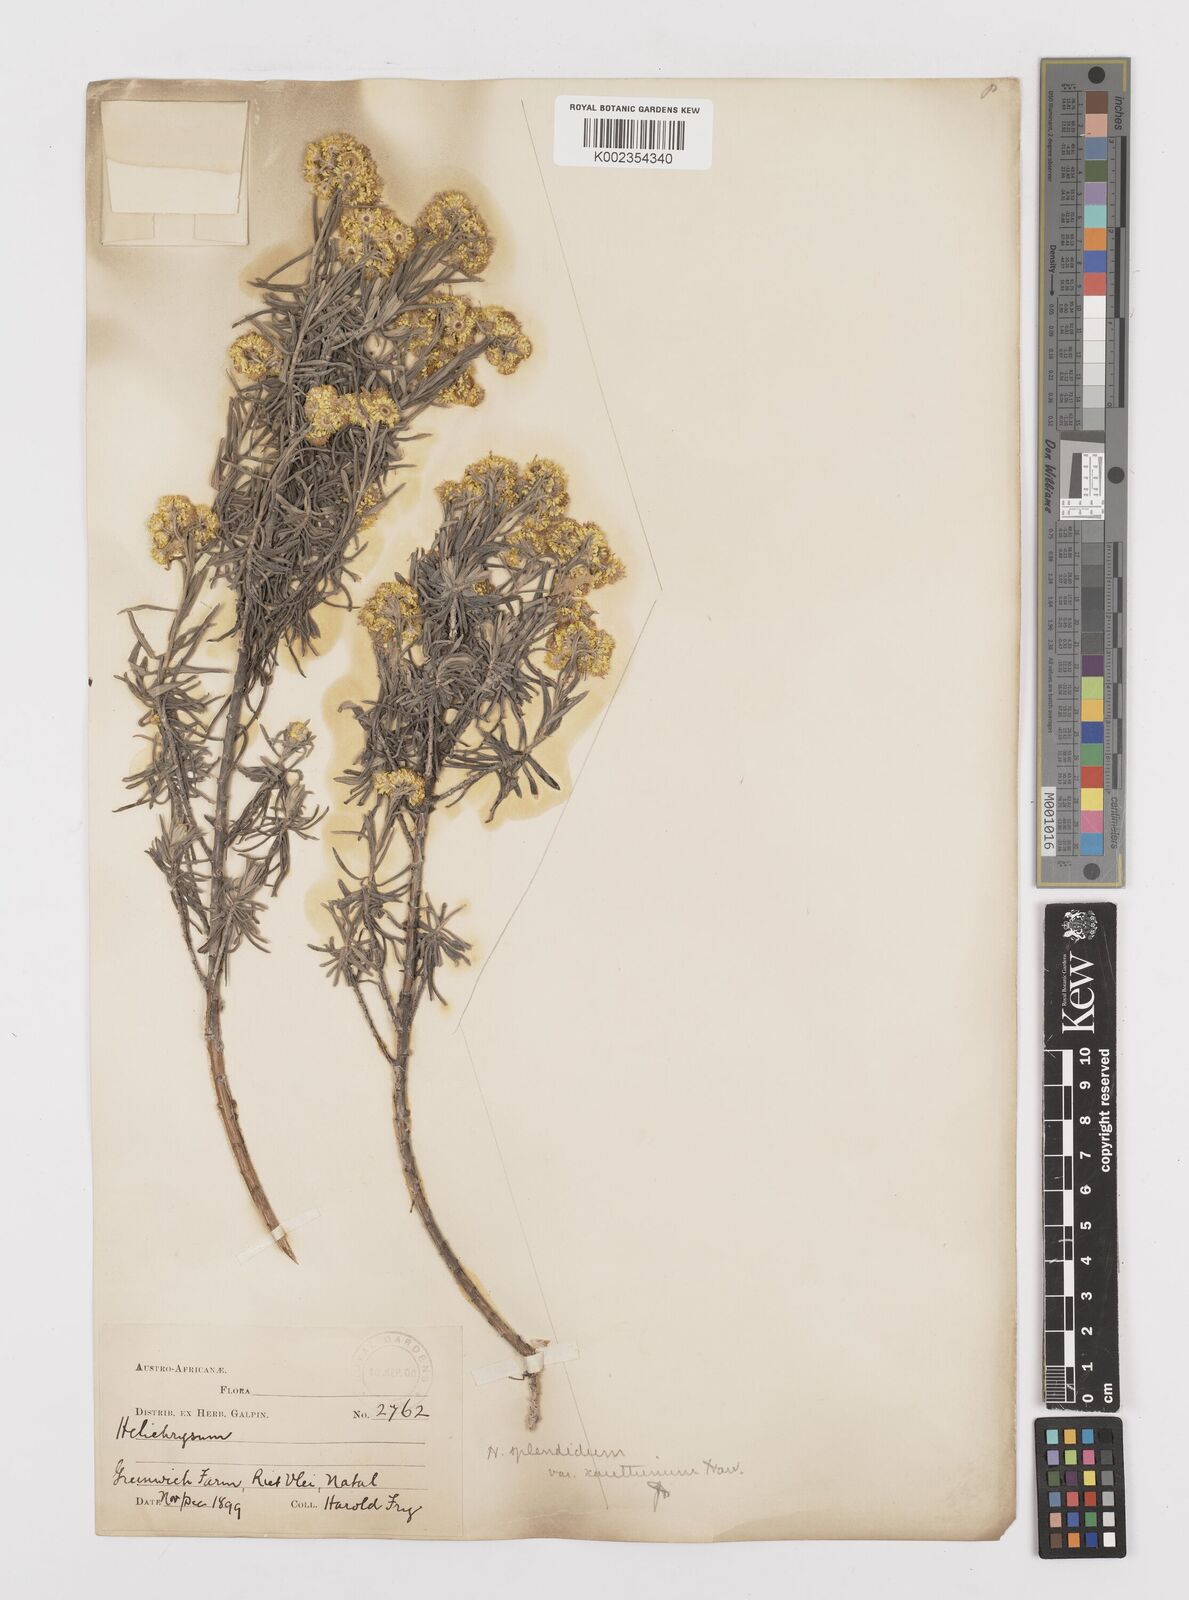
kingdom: Plantae
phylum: Tracheophyta
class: Magnoliopsida
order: Asterales
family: Asteraceae
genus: Helichrysum
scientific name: Helichrysum splendidum
